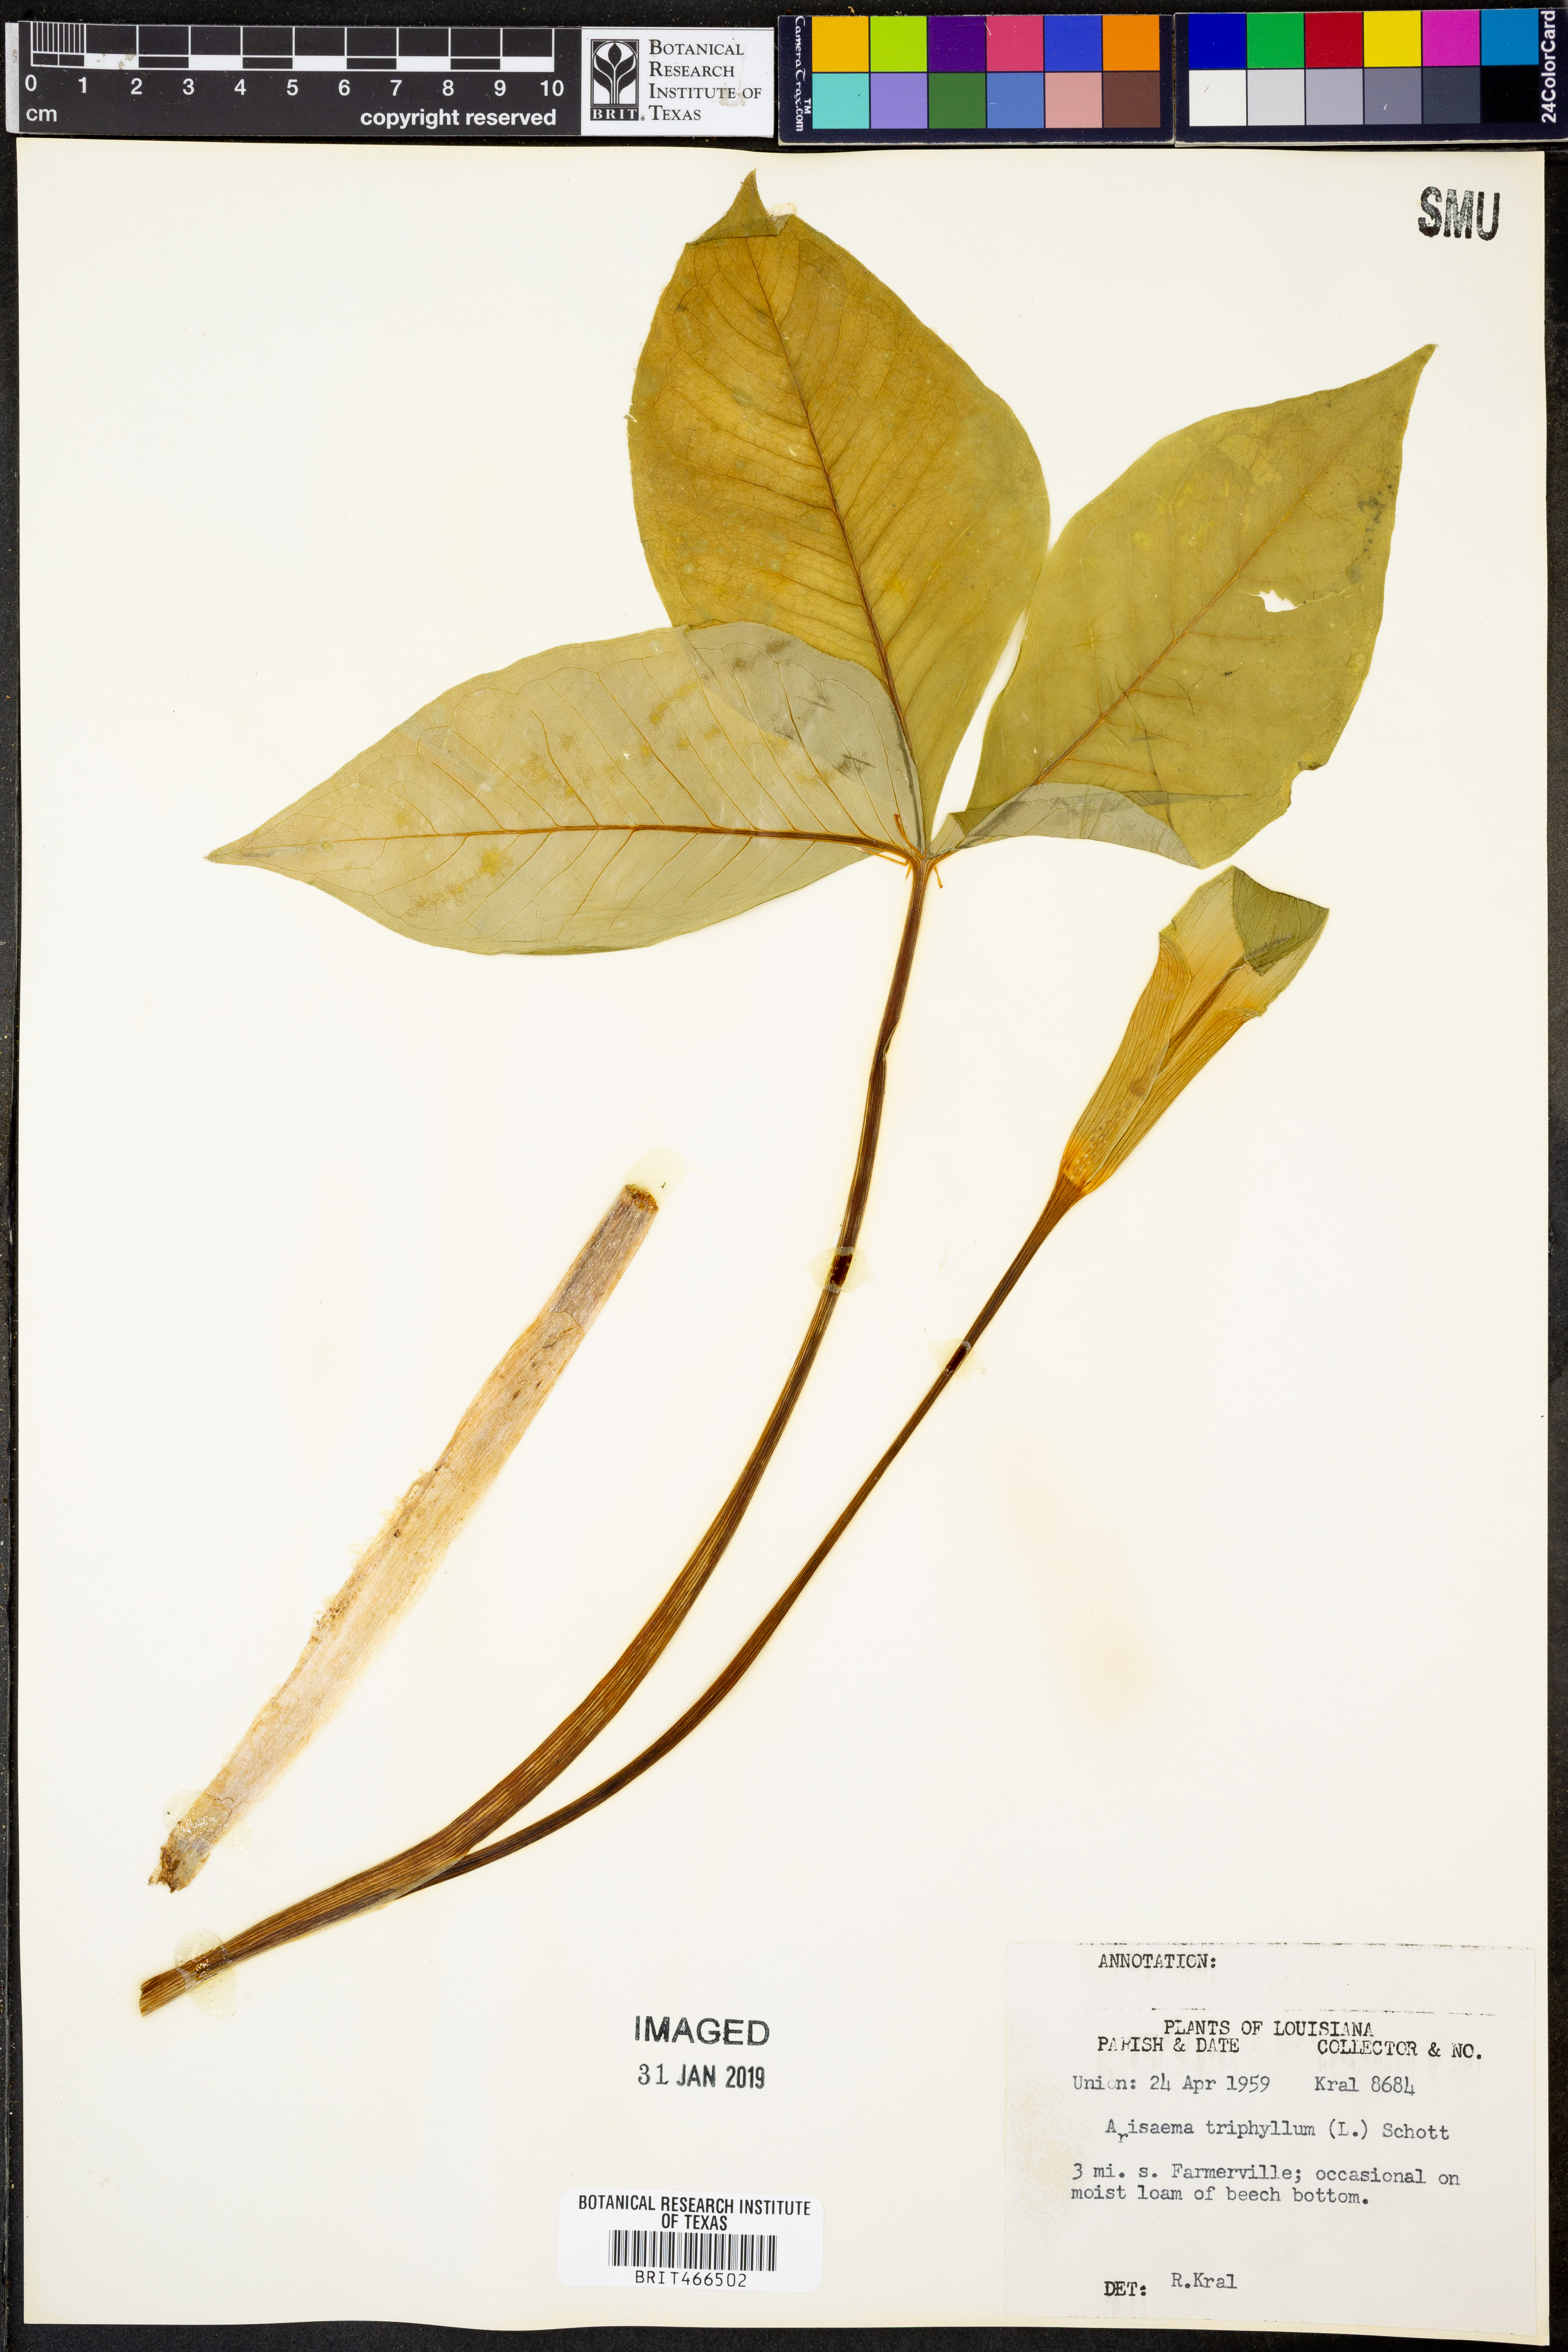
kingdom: Plantae
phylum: Tracheophyta
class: Liliopsida
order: Alismatales
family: Araceae
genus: Arisaema
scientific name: Arisaema triphyllum
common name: Jack-in-the-pulpit
